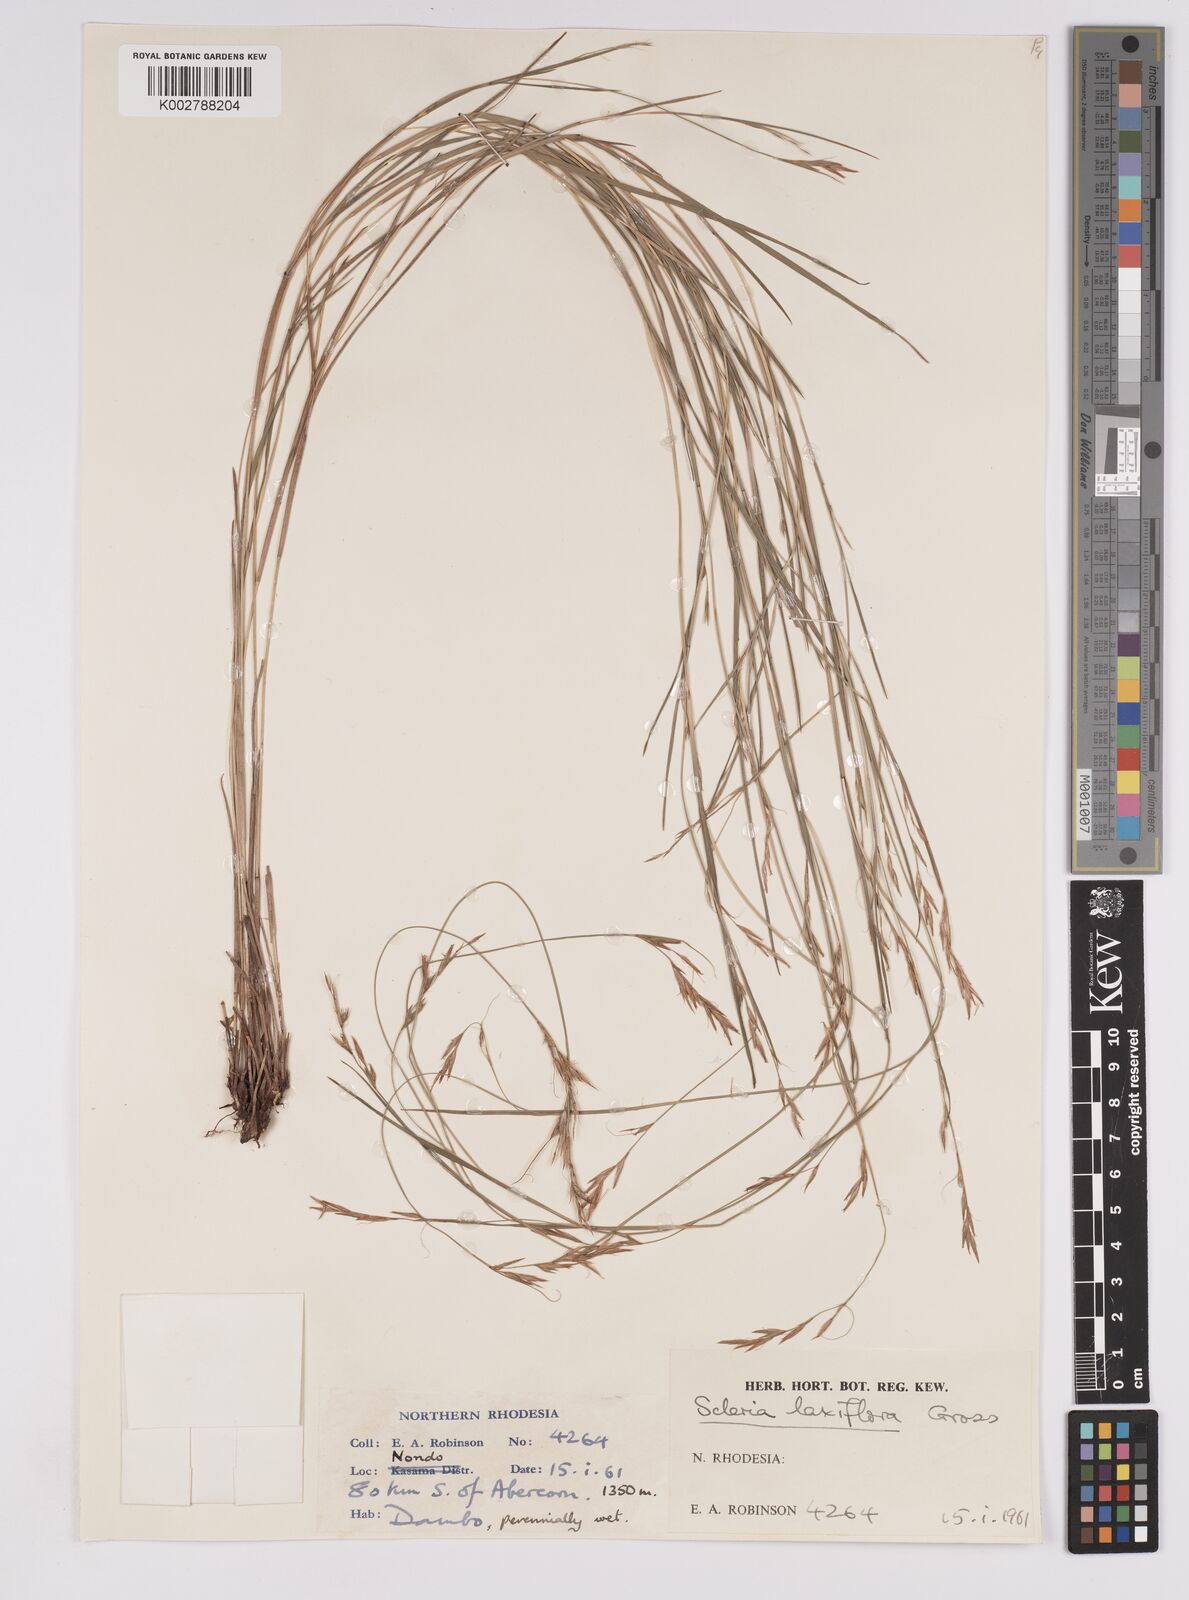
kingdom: Plantae
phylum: Tracheophyta
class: Liliopsida
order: Poales
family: Cyperaceae
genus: Scleria
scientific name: Scleria laxiflora
